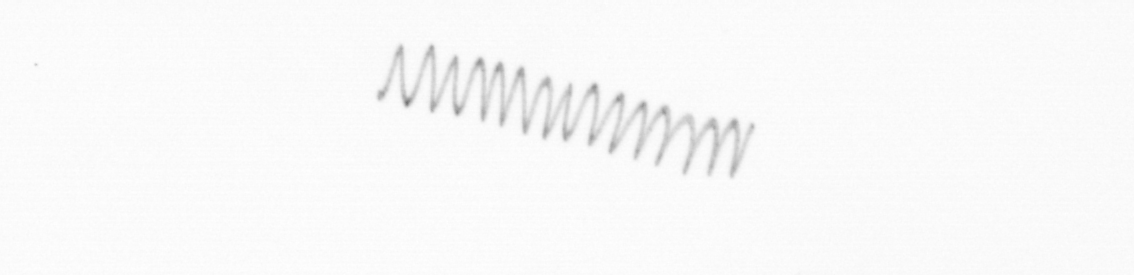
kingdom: Chromista
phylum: Ochrophyta
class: Bacillariophyceae
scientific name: Bacillariophyceae
